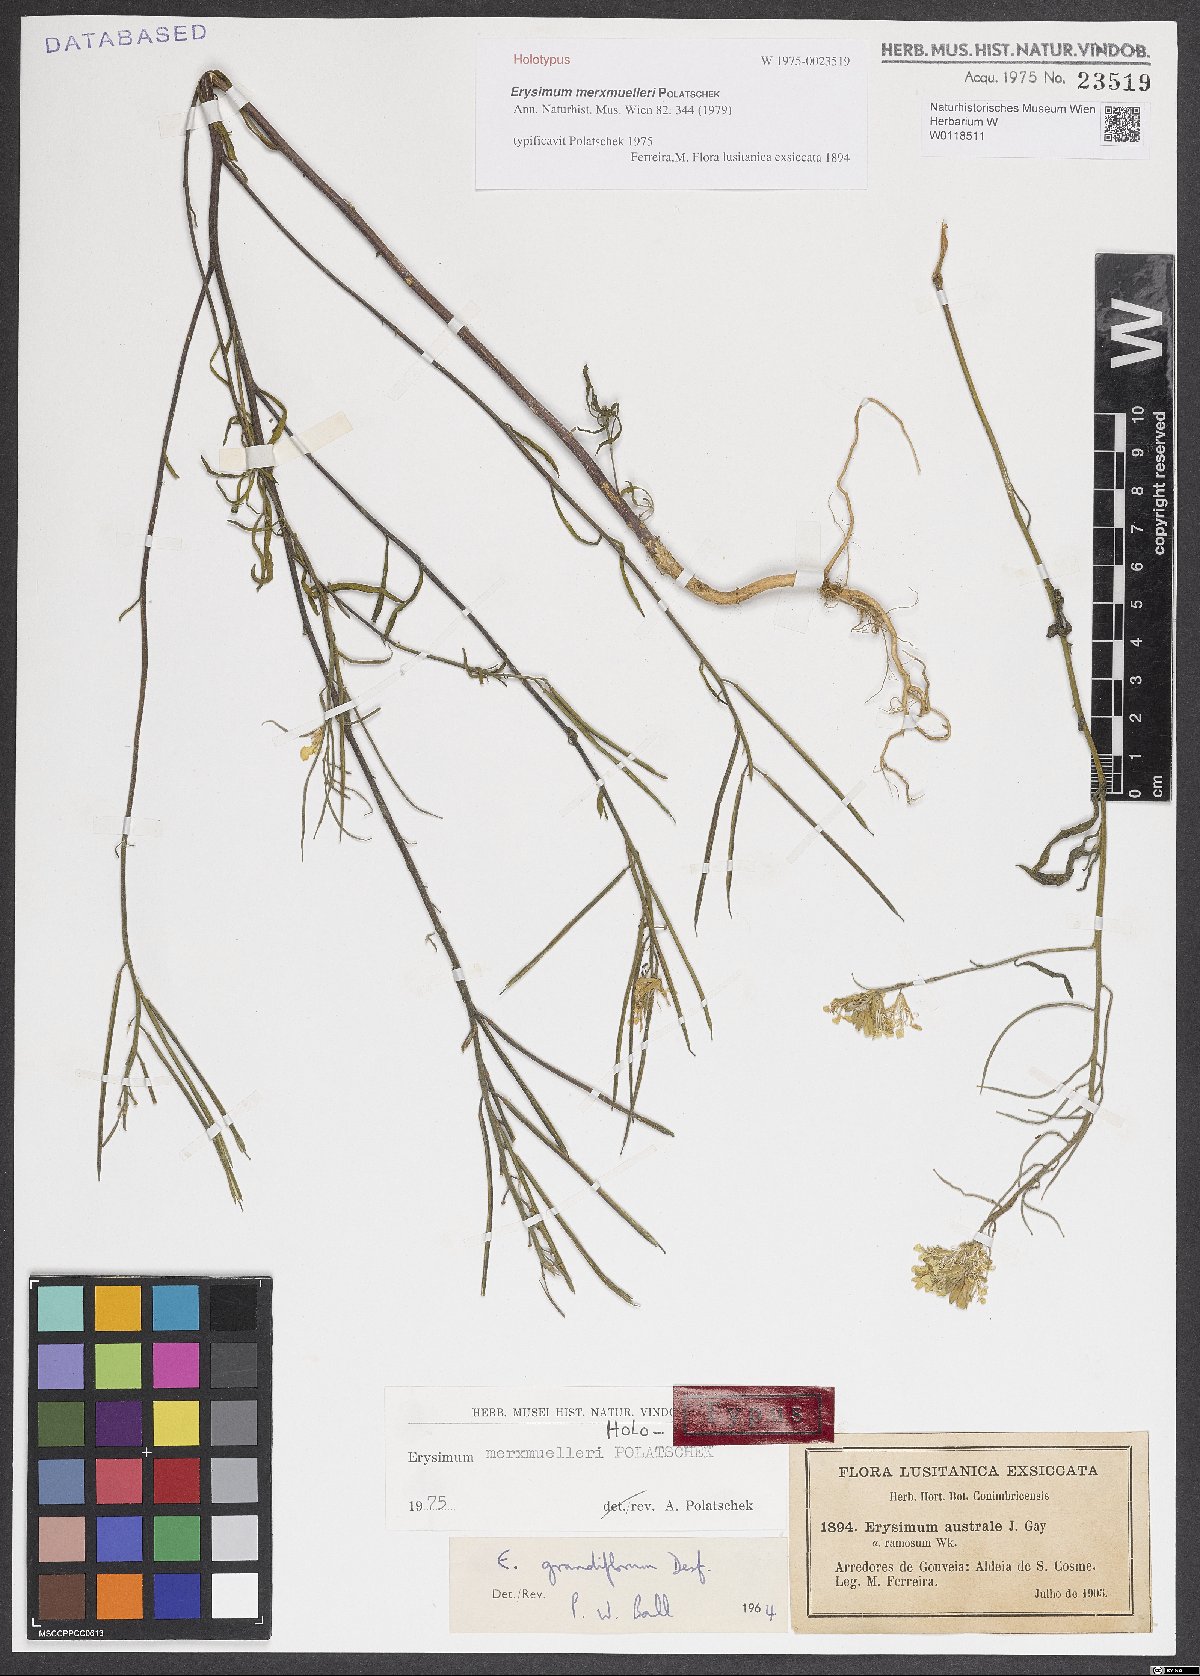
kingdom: Plantae
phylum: Tracheophyta
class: Magnoliopsida
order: Brassicales
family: Brassicaceae
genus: Erysimum
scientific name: Erysimum nevadense
